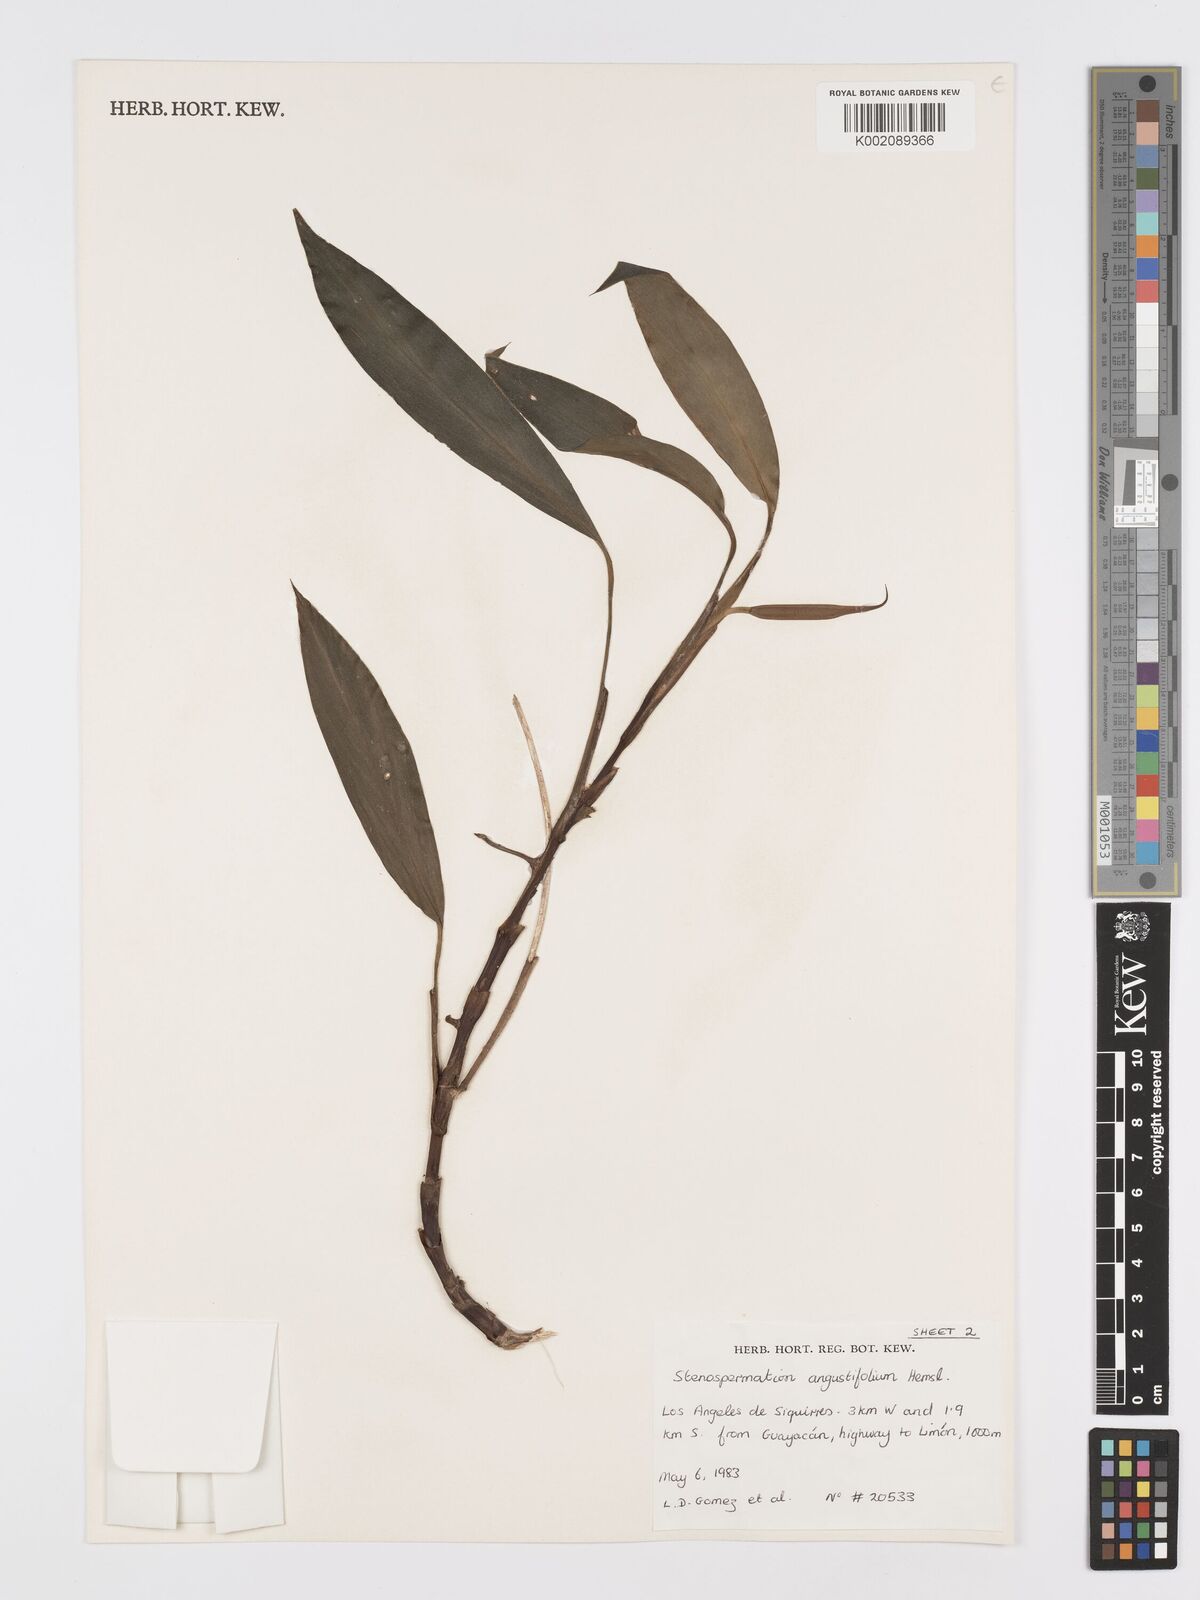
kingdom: Plantae
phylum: Tracheophyta
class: Liliopsida
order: Alismatales
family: Araceae
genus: Stenospermation
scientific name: Stenospermation angustifolium
